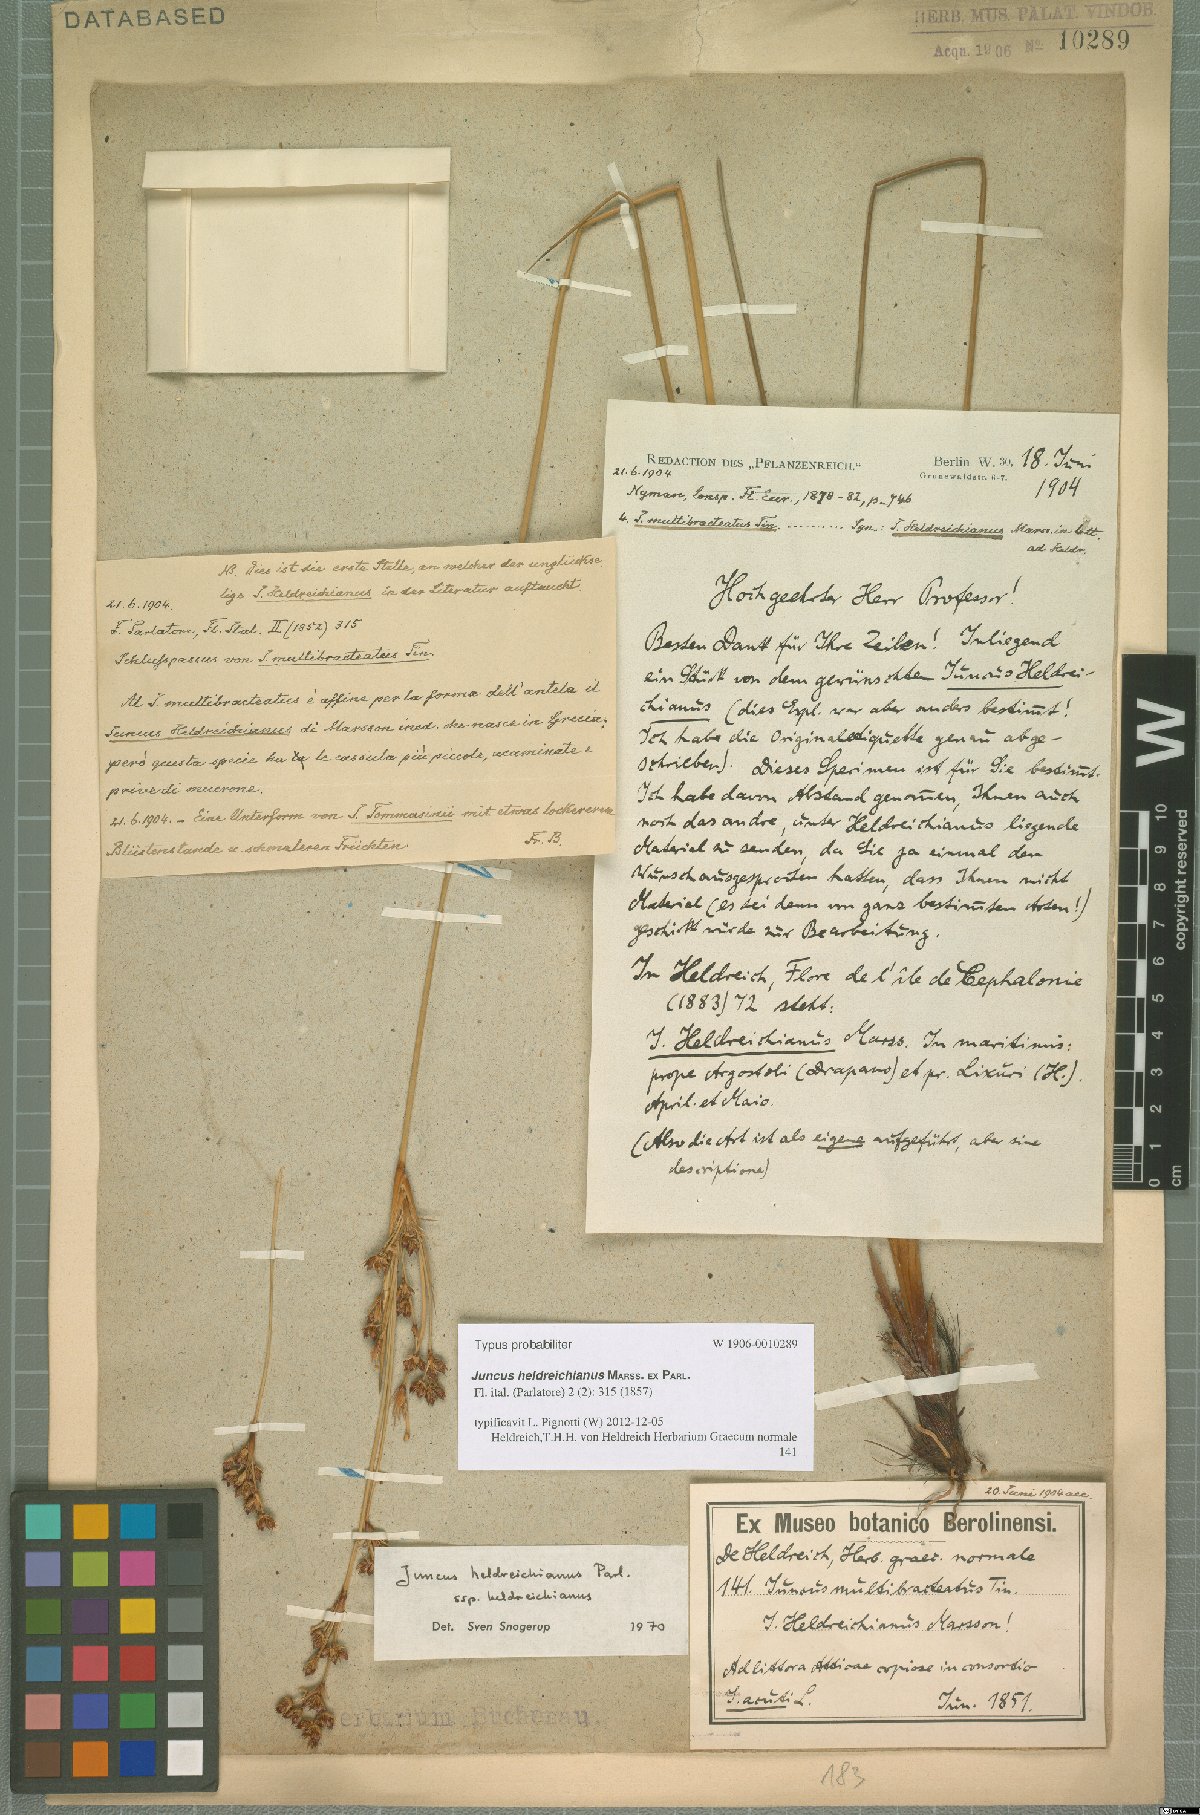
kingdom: Plantae
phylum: Tracheophyta
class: Liliopsida
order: Poales
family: Juncaceae
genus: Juncus
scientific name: Juncus heldreichianus
